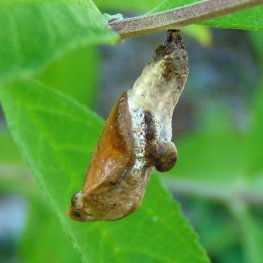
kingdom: Animalia
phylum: Arthropoda
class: Insecta
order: Lepidoptera
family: Nymphalidae
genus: Limenitis
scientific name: Limenitis archippus
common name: Viceroy
